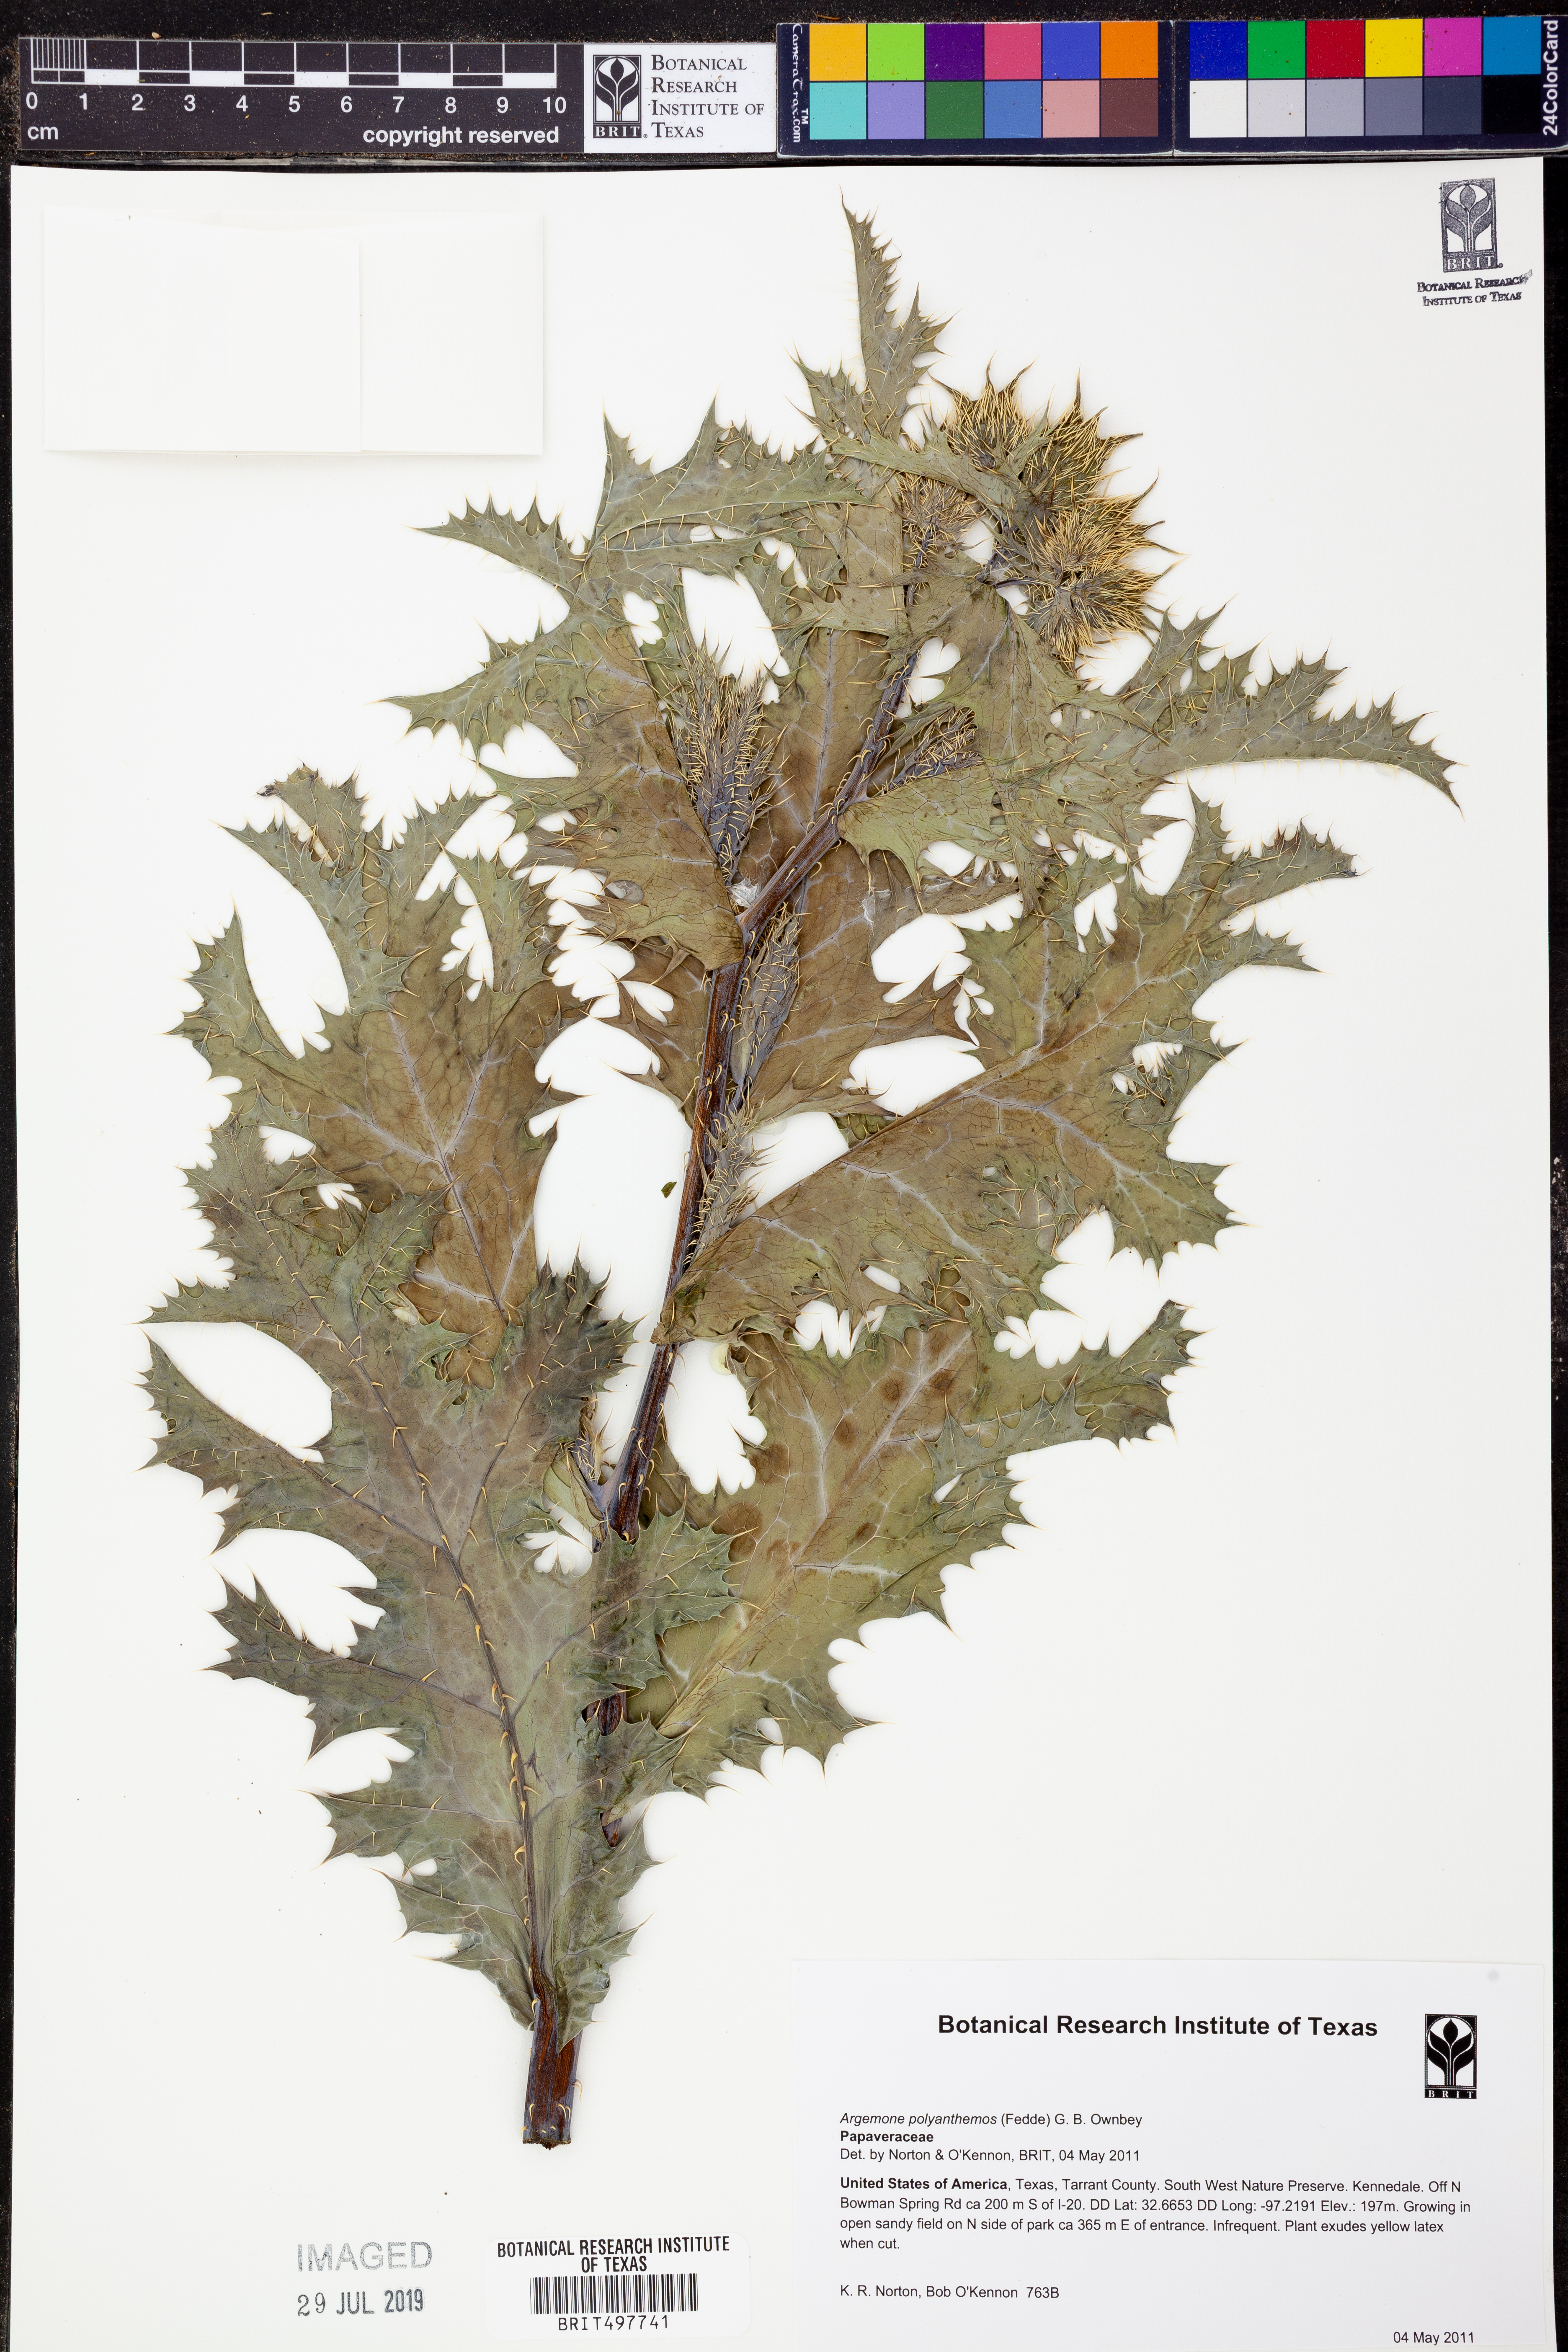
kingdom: Plantae
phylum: Tracheophyta
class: Magnoliopsida
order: Ranunculales
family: Papaveraceae
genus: Argemone
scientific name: Argemone polyanthemos
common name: Plains prickly-poppy
